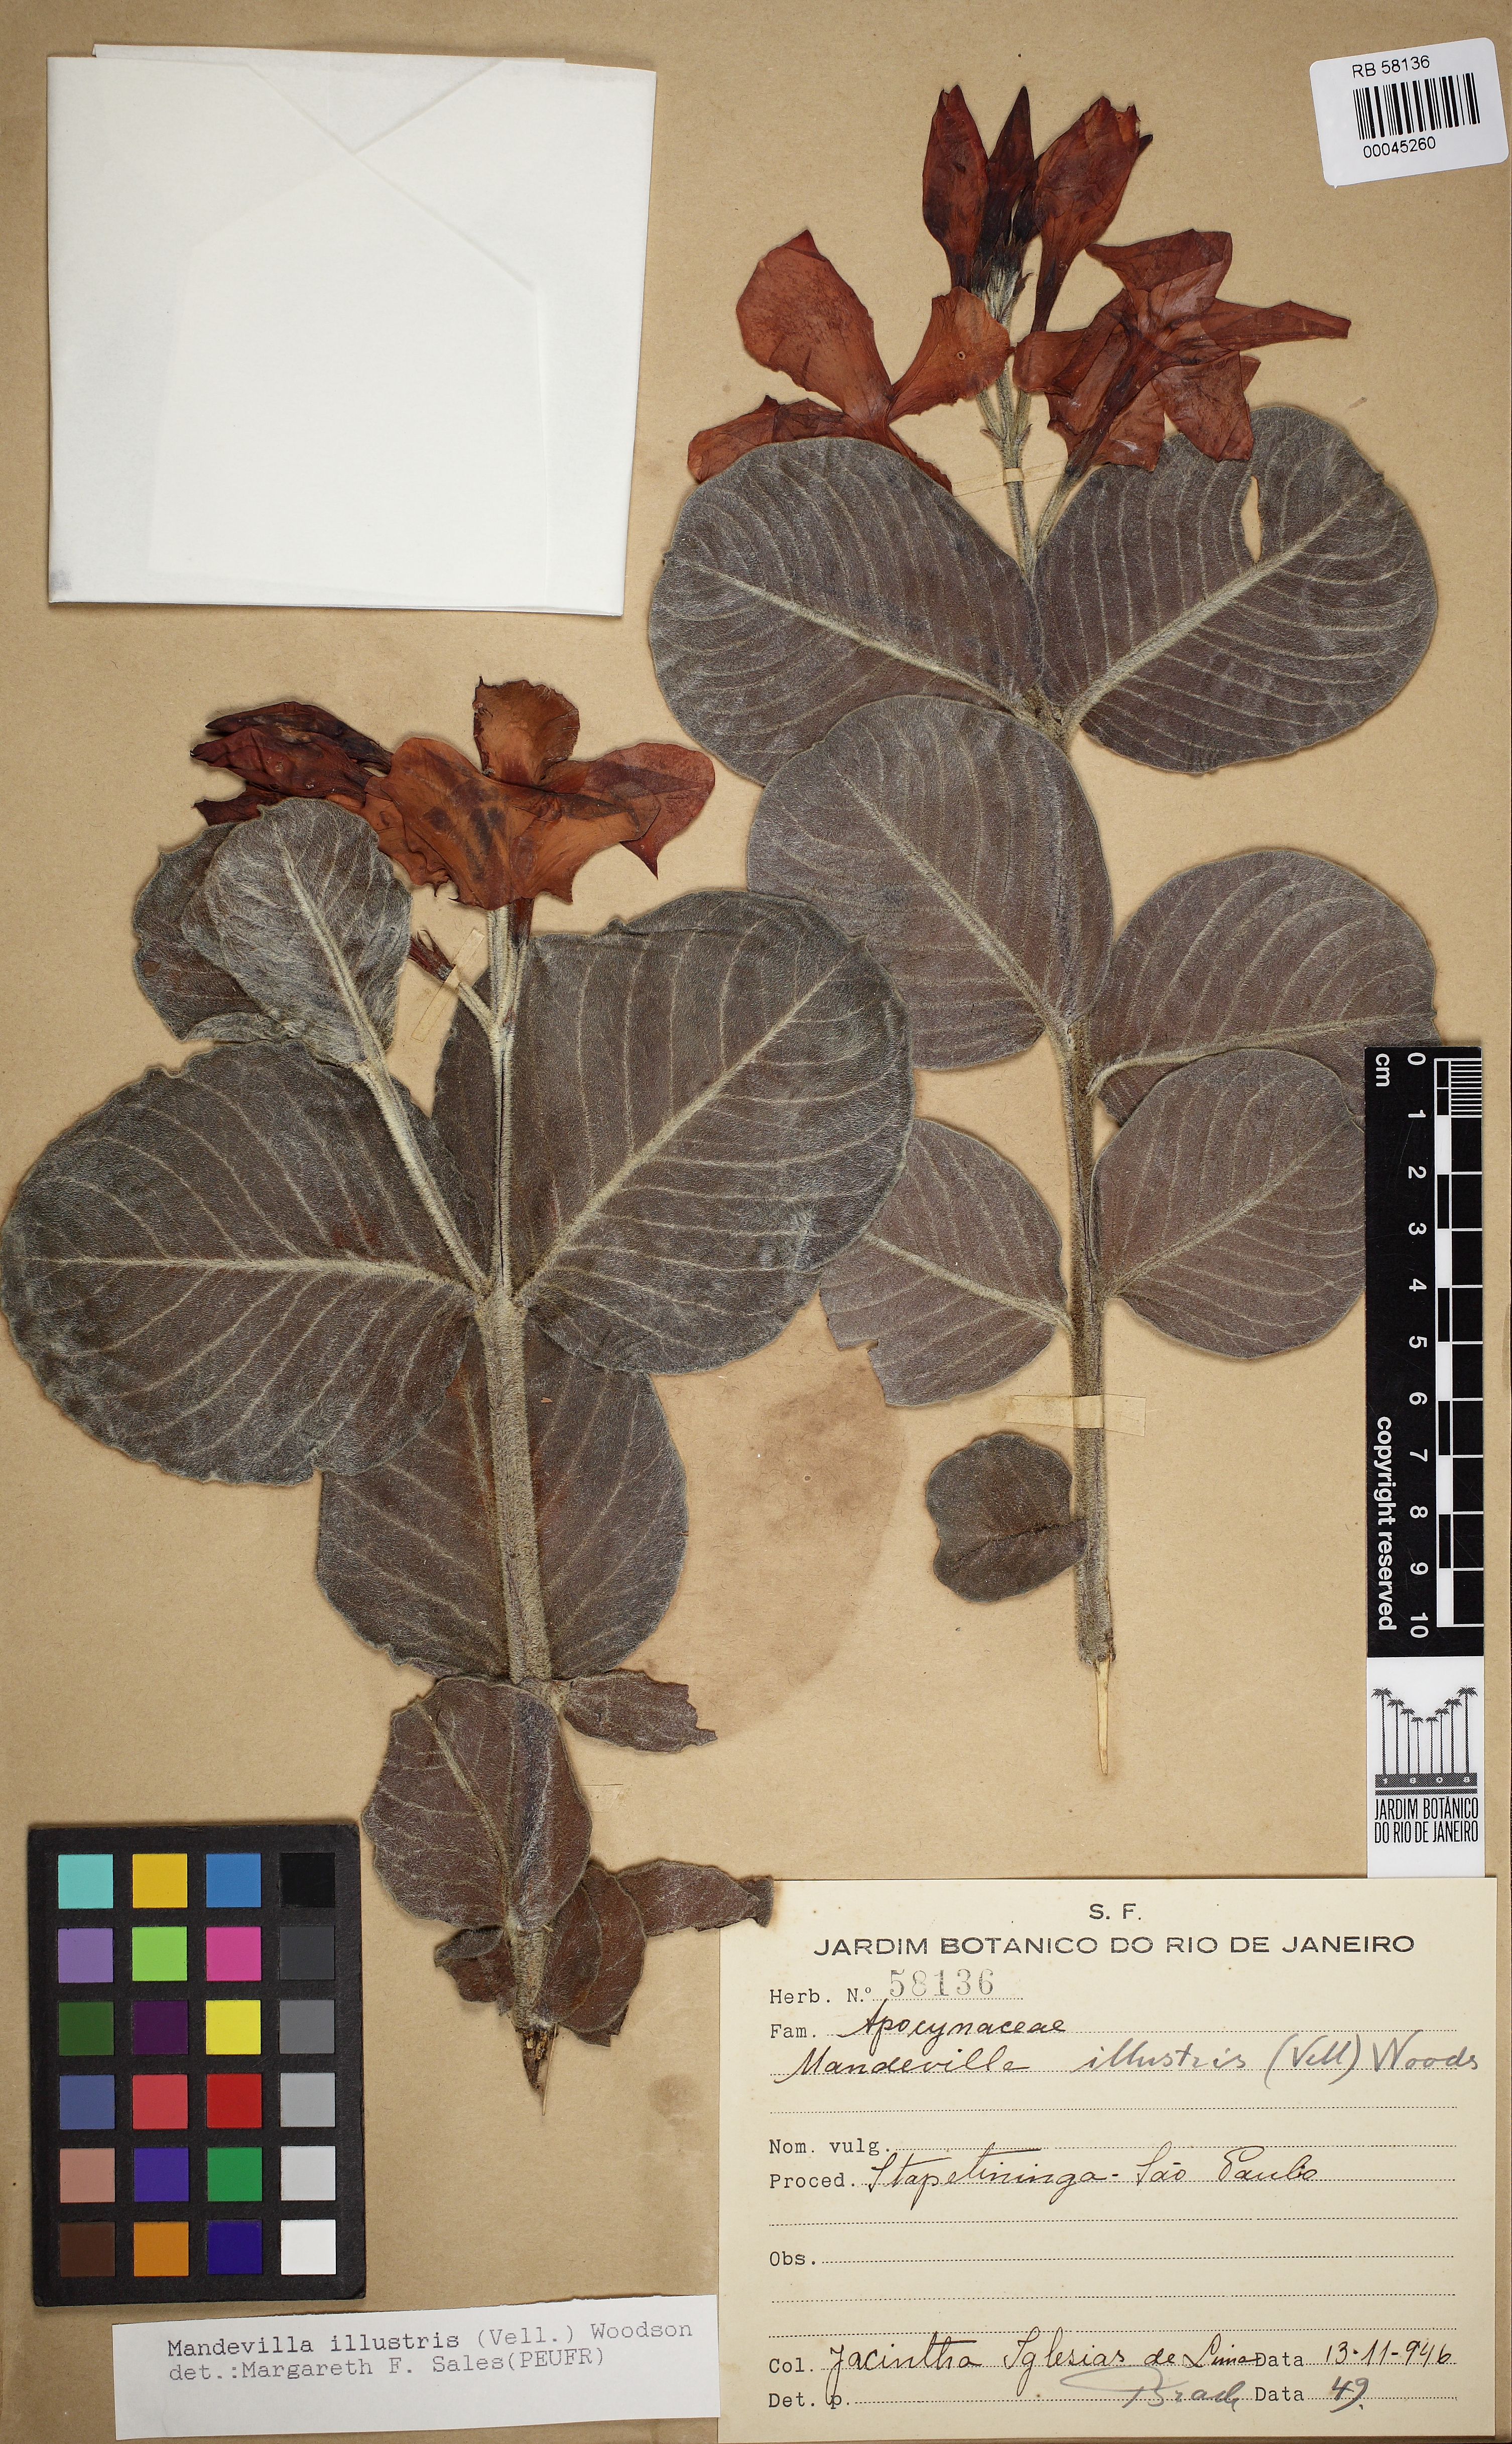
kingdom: Plantae
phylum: Tracheophyta
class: Magnoliopsida
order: Gentianales
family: Apocynaceae
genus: Mandevilla
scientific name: Mandevilla illustris
